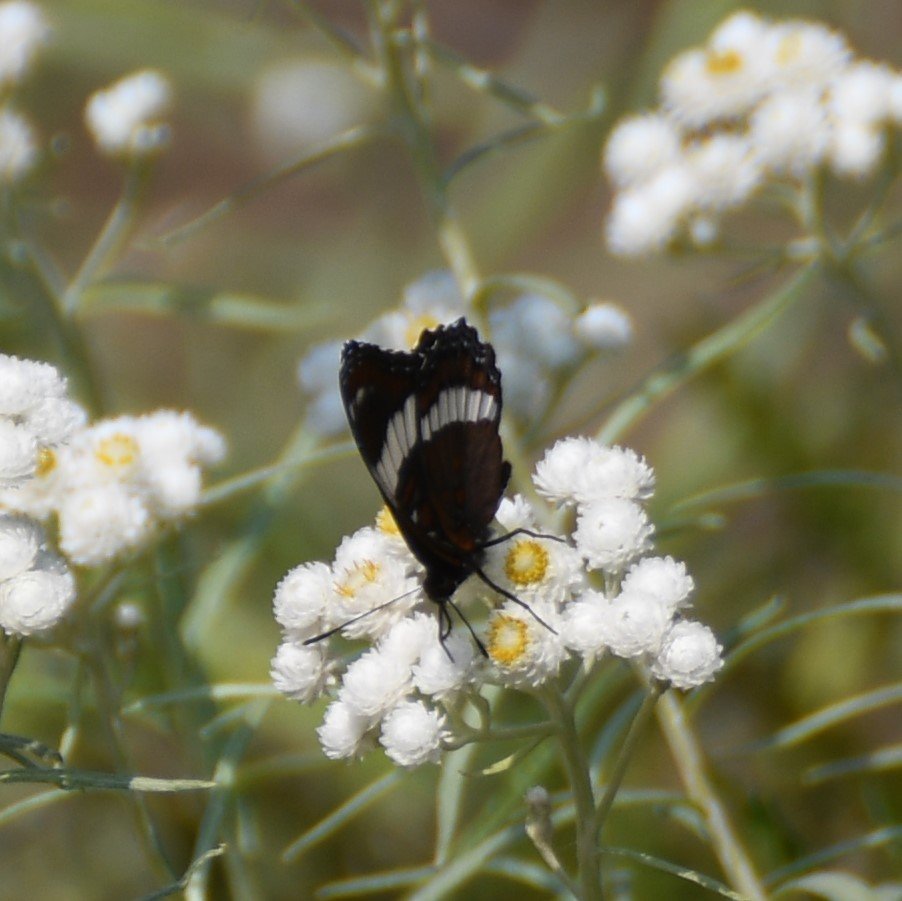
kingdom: Animalia
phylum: Arthropoda
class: Insecta
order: Lepidoptera
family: Nymphalidae
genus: Limenitis
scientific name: Limenitis arthemis
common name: Red-spotted Admiral
